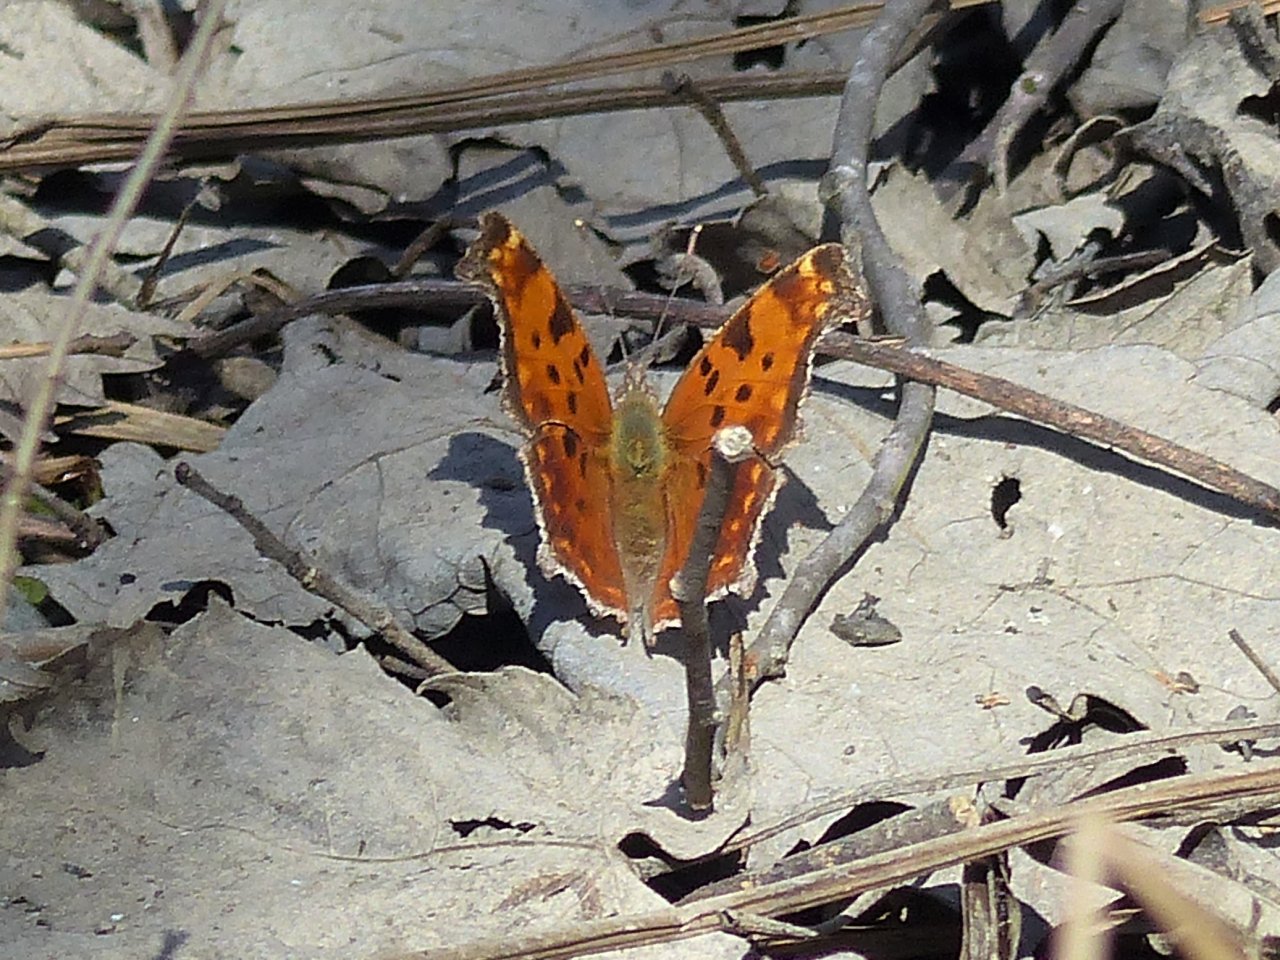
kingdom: Animalia
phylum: Arthropoda
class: Insecta
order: Lepidoptera
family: Nymphalidae
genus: Polygonia
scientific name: Polygonia comma
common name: Eastern Comma
